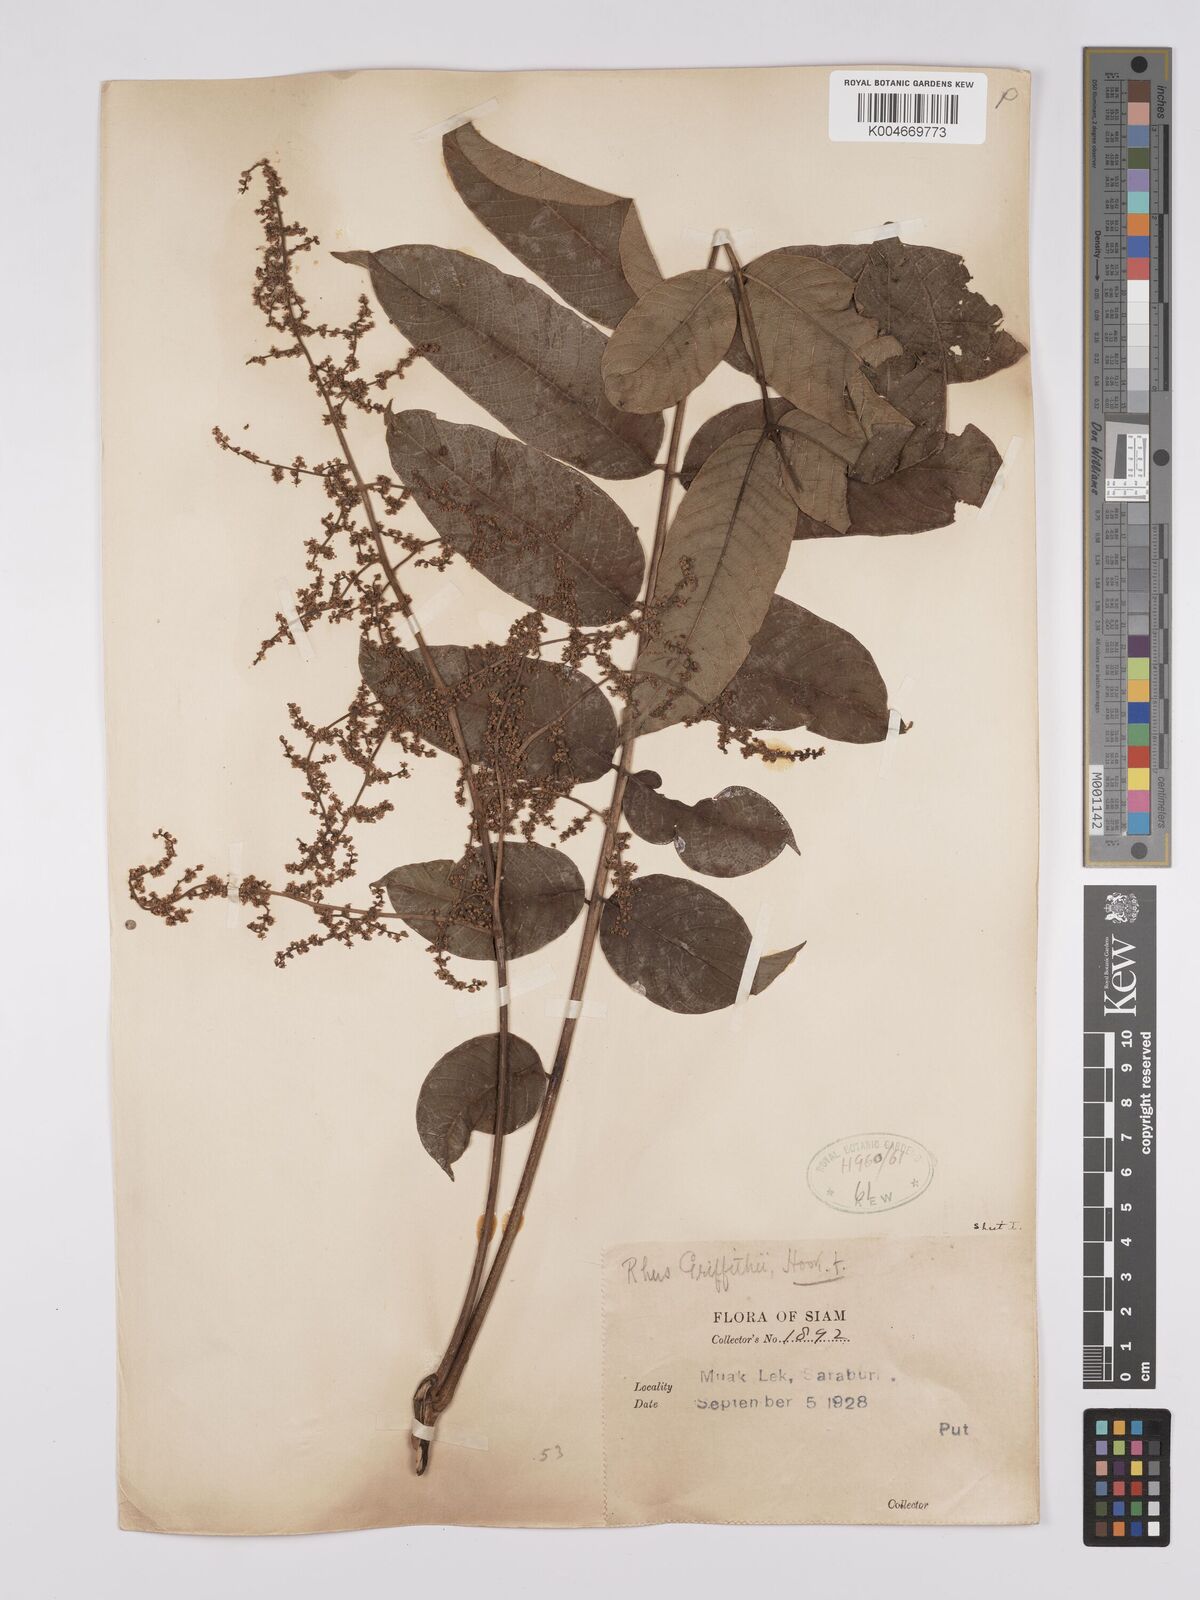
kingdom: Plantae
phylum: Tracheophyta
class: Magnoliopsida
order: Sapindales
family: Anacardiaceae
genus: Toxicodendron
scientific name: Toxicodendron griffithii
